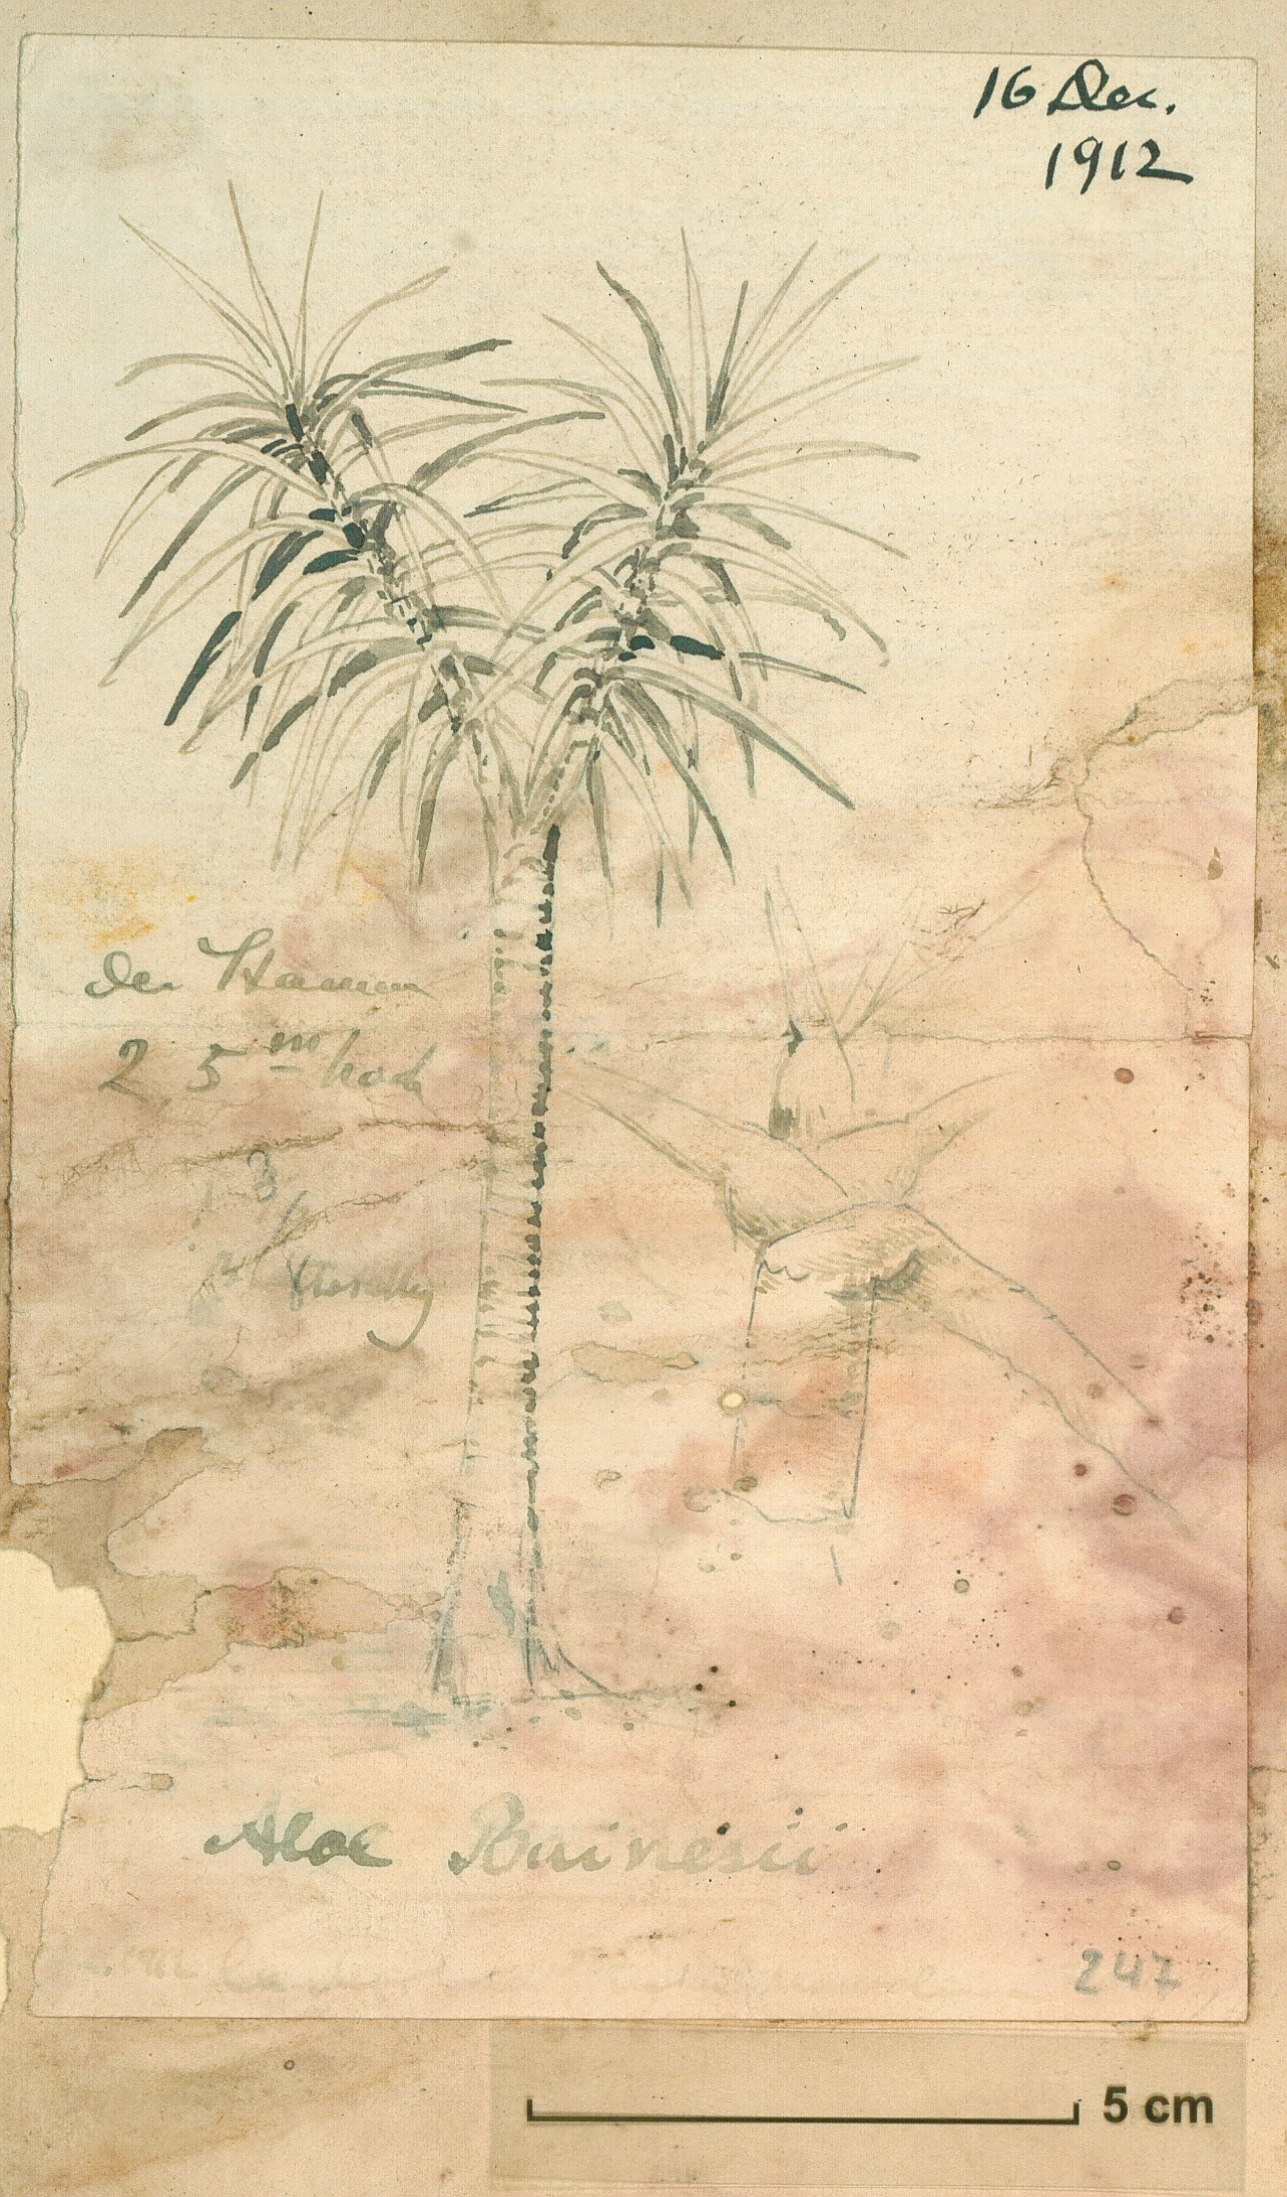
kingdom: Plantae
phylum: Tracheophyta
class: Liliopsida
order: Asparagales
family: Asphodelaceae
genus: Aloidendron
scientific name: Aloidendron barberae
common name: Tree aloe
